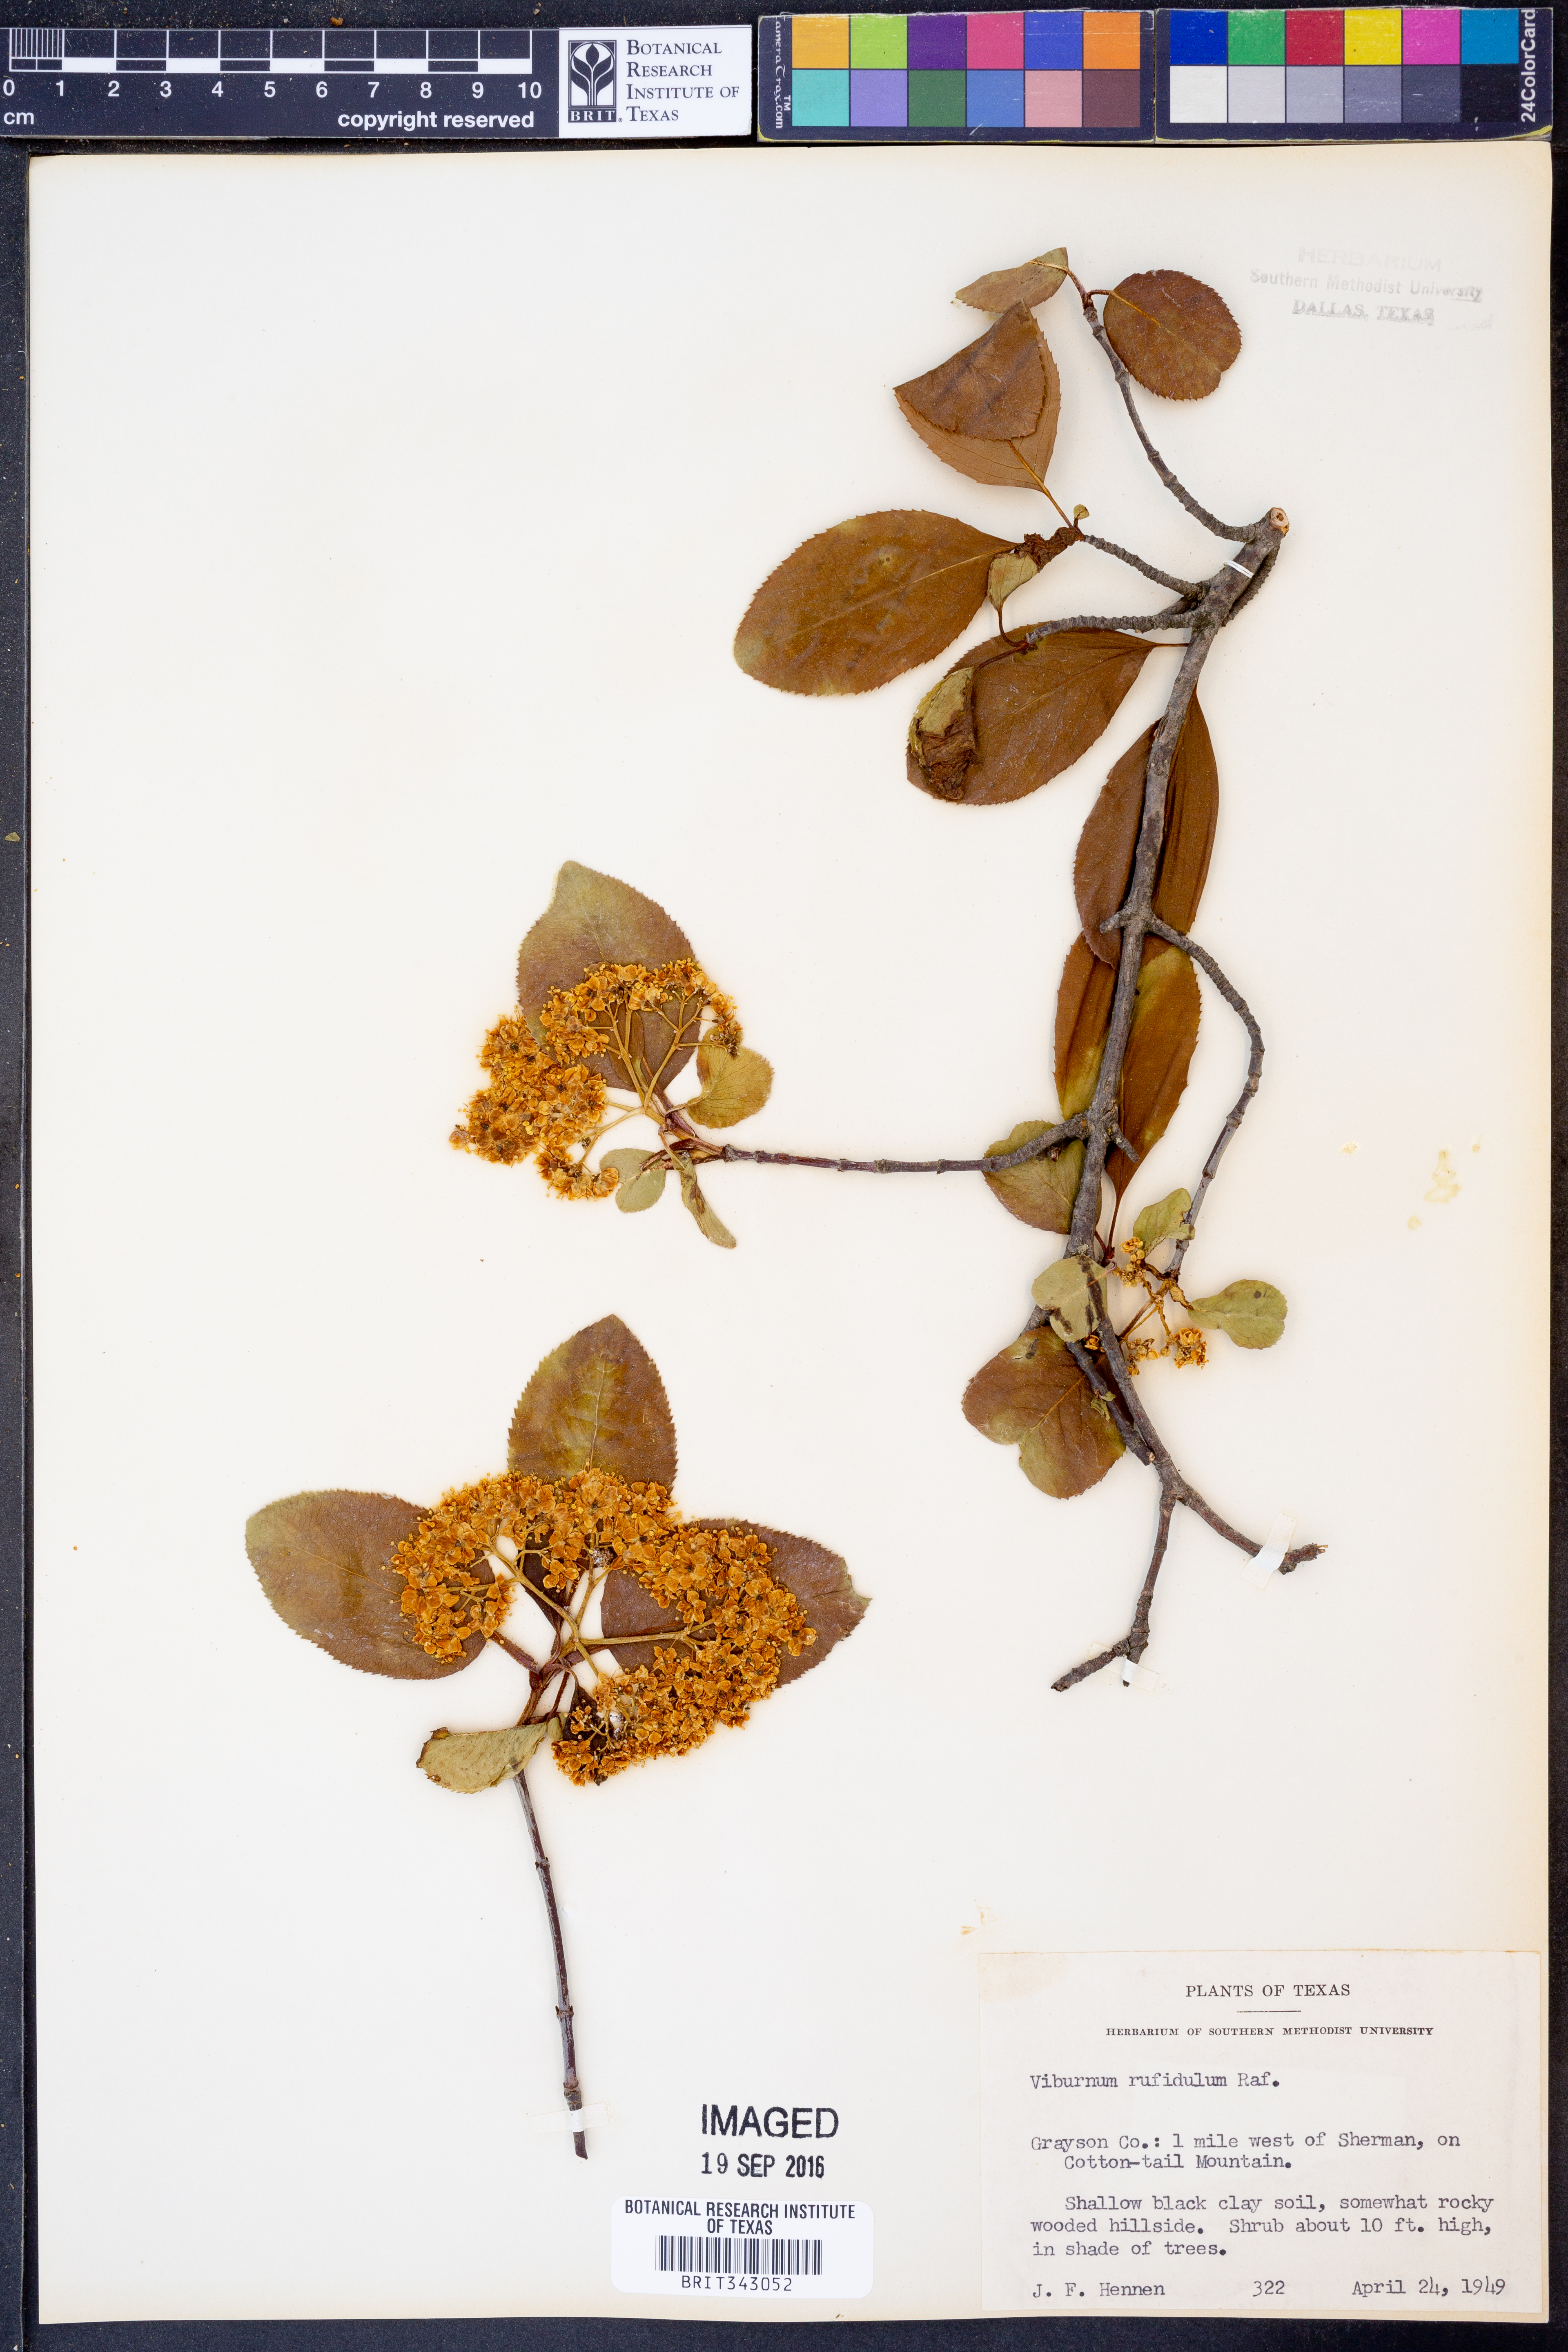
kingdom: Plantae
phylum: Tracheophyta
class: Magnoliopsida
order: Dipsacales
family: Viburnaceae
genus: Viburnum
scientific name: Viburnum rufidulum
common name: Blue haw
